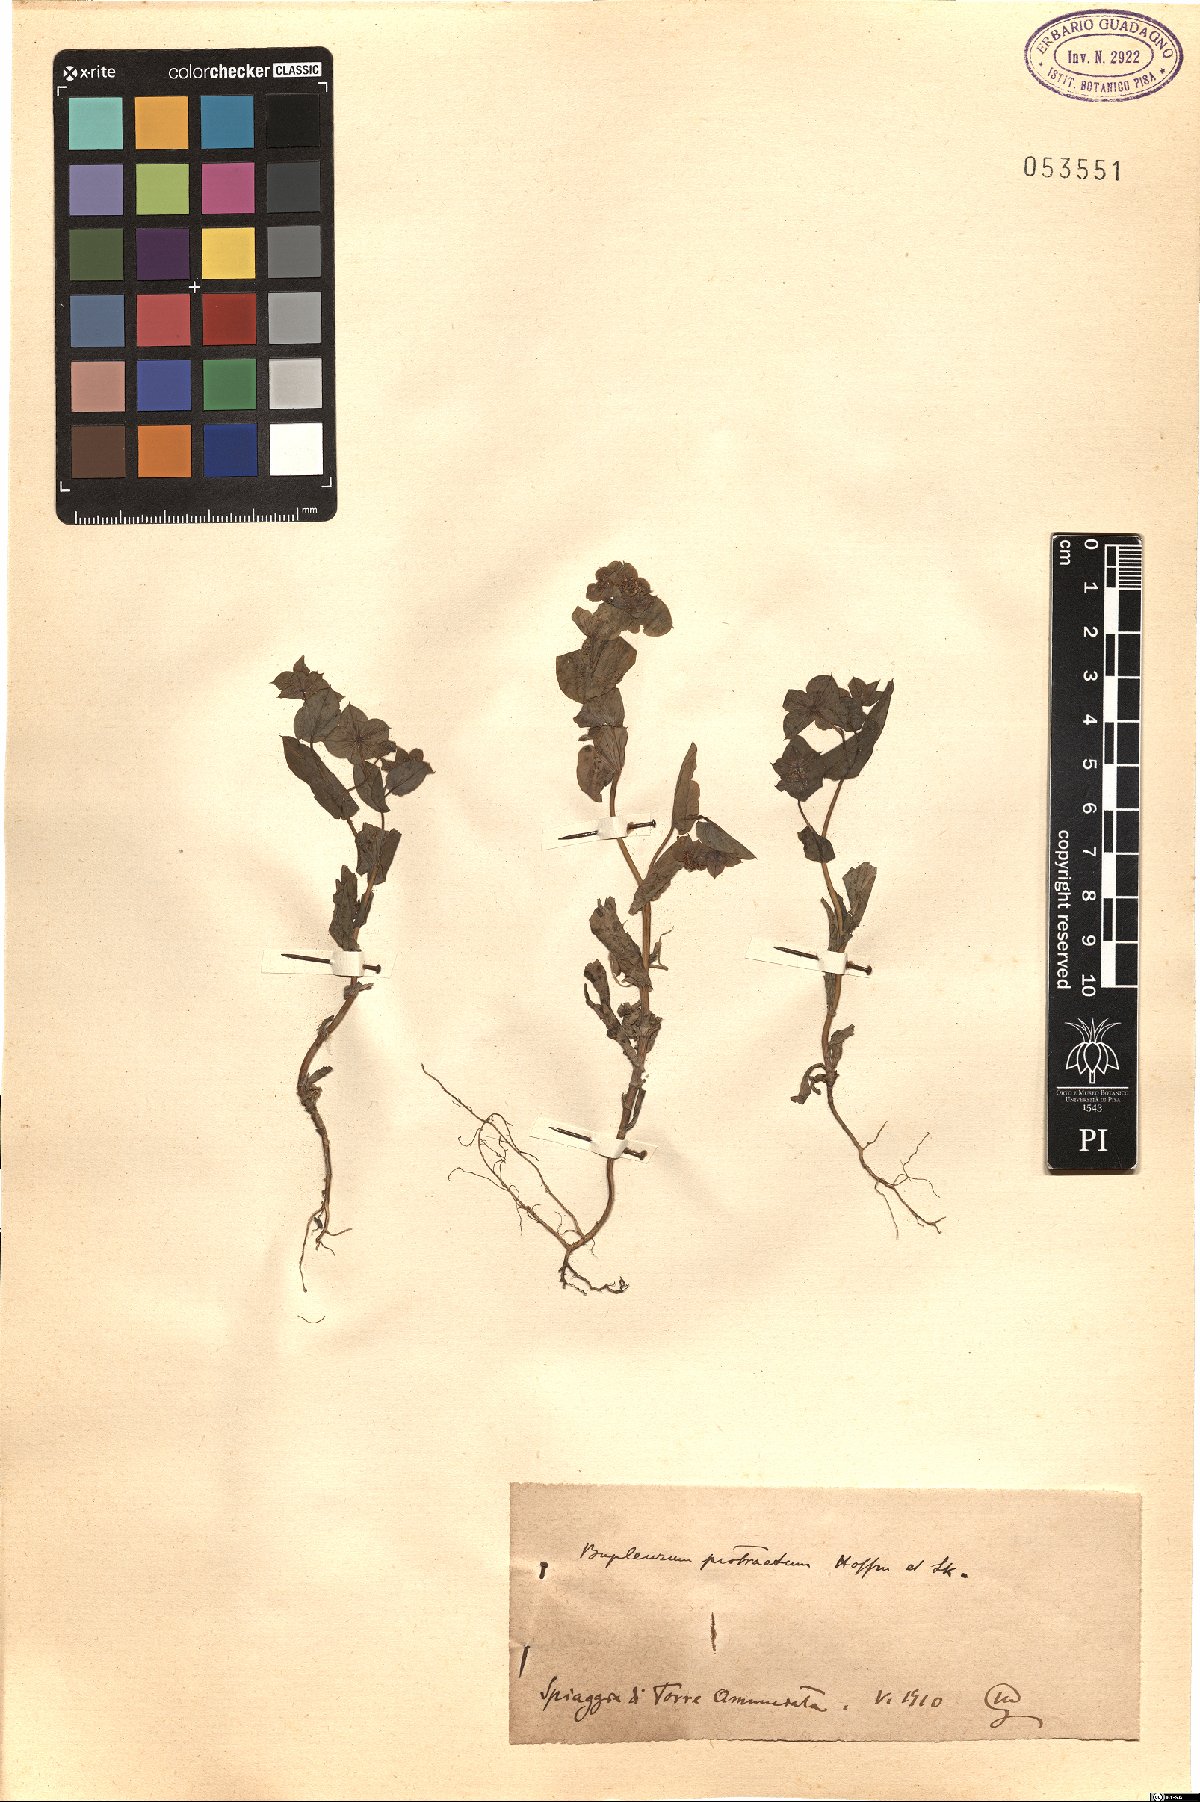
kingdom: Plantae
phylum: Tracheophyta
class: Magnoliopsida
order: Apiales
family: Apiaceae
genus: Bupleurum
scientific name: Bupleurum subovatum
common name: False thorow-wax
